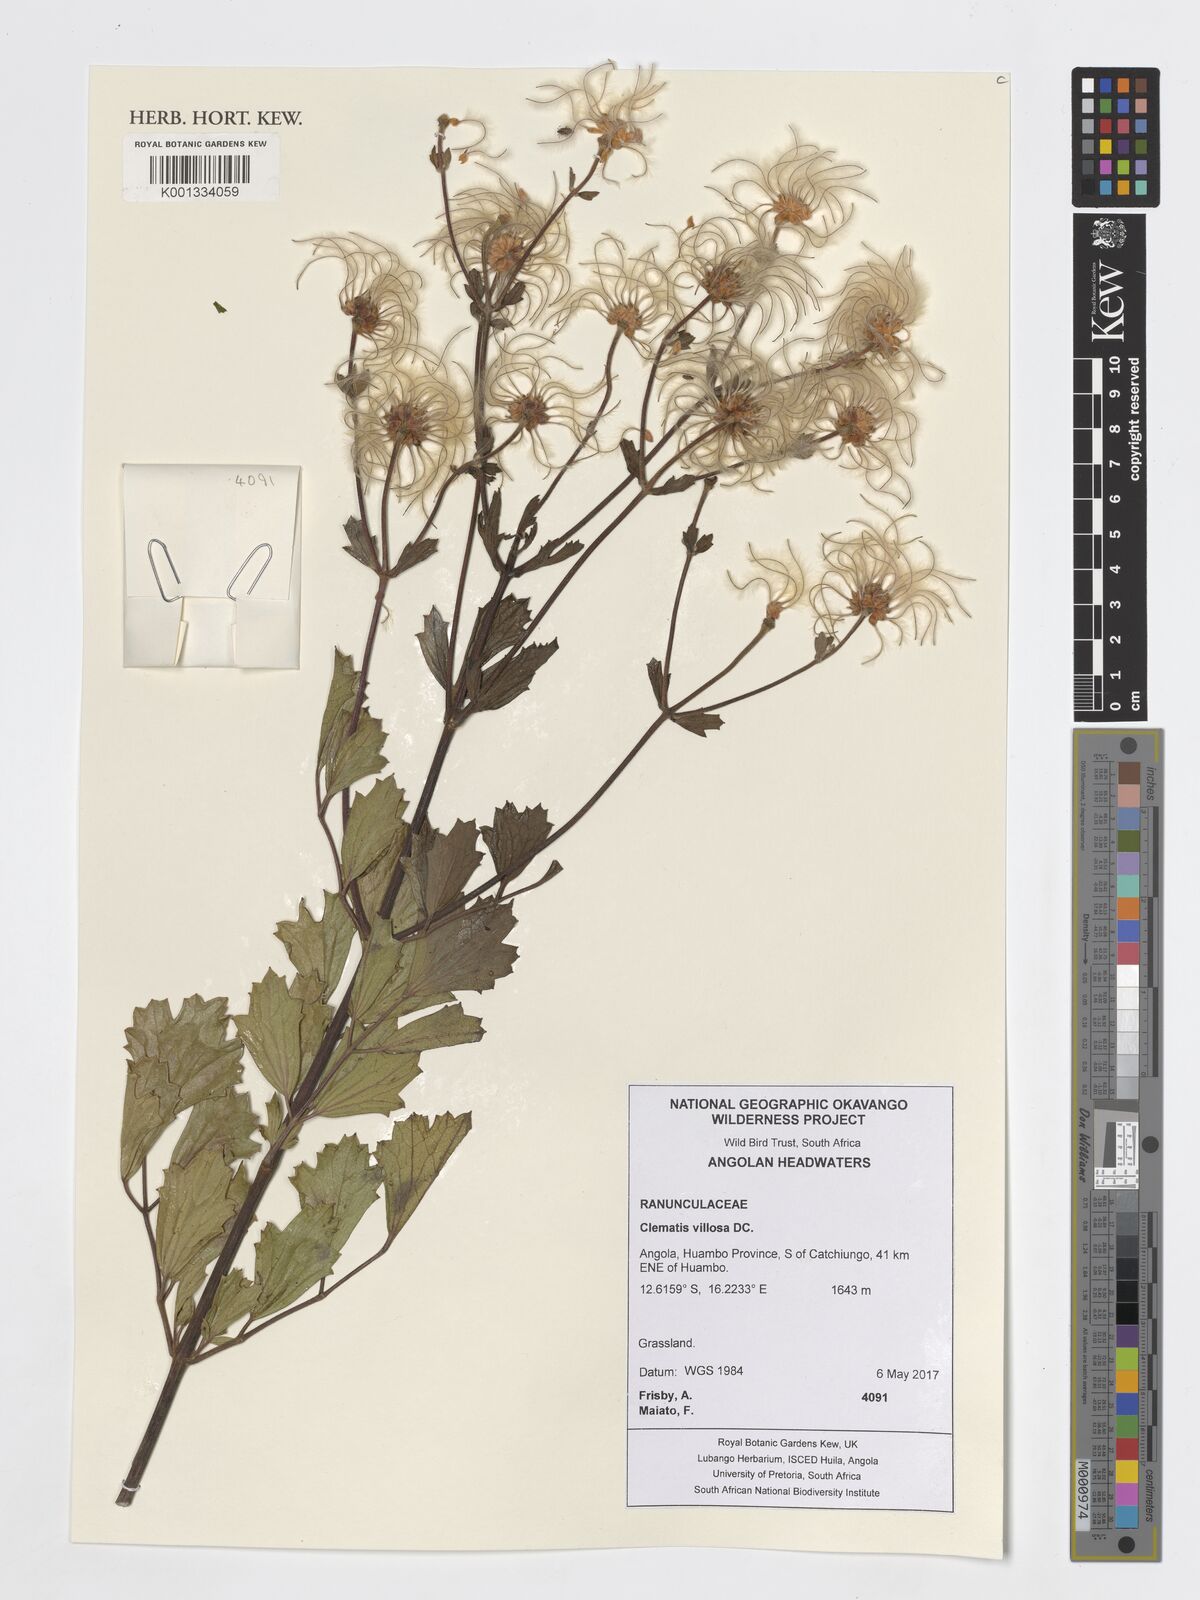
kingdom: Plantae
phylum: Tracheophyta
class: Magnoliopsida
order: Ranunculales
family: Ranunculaceae
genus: Clematis
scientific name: Clematis villosa
